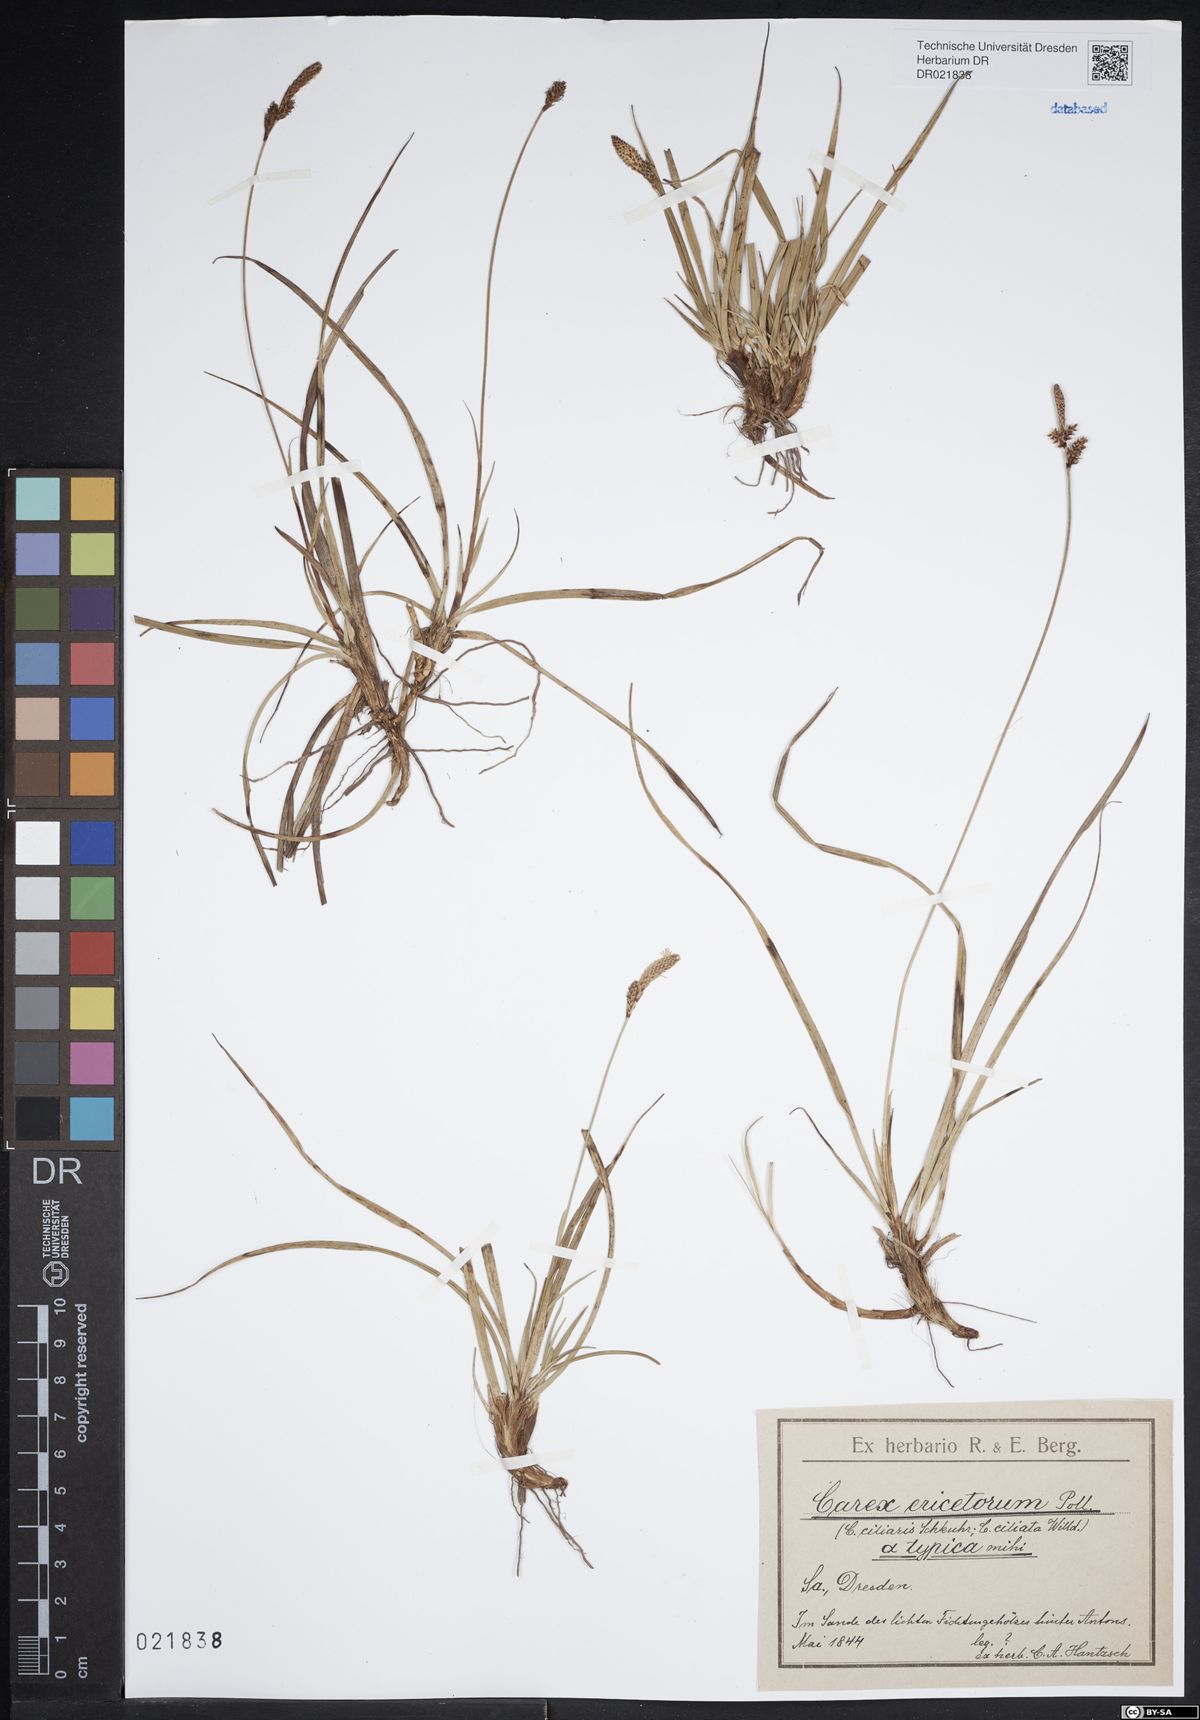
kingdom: Plantae
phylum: Tracheophyta
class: Liliopsida
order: Poales
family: Cyperaceae
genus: Carex
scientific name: Carex ericetorum
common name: Rare spring-sedge
